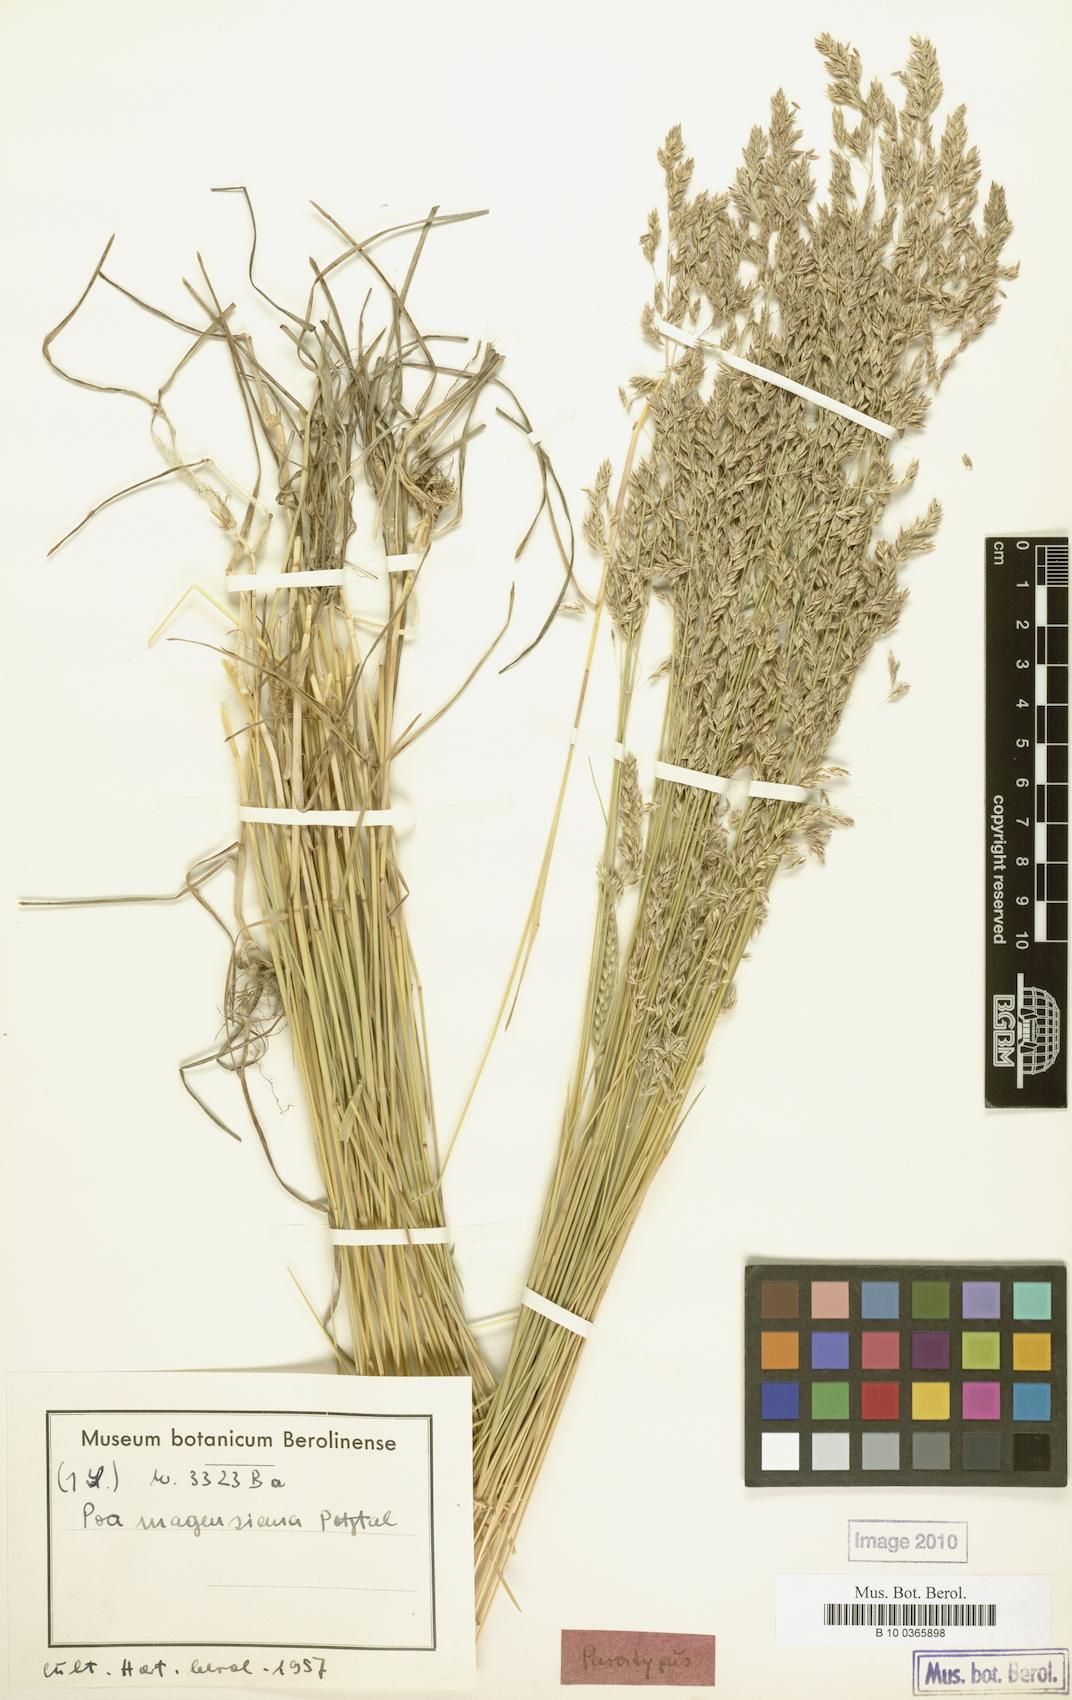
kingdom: Plantae
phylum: Tracheophyta
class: Liliopsida
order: Poales
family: Poaceae
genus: Poa
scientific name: Poa pratensis
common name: Kentucky bluegrass
